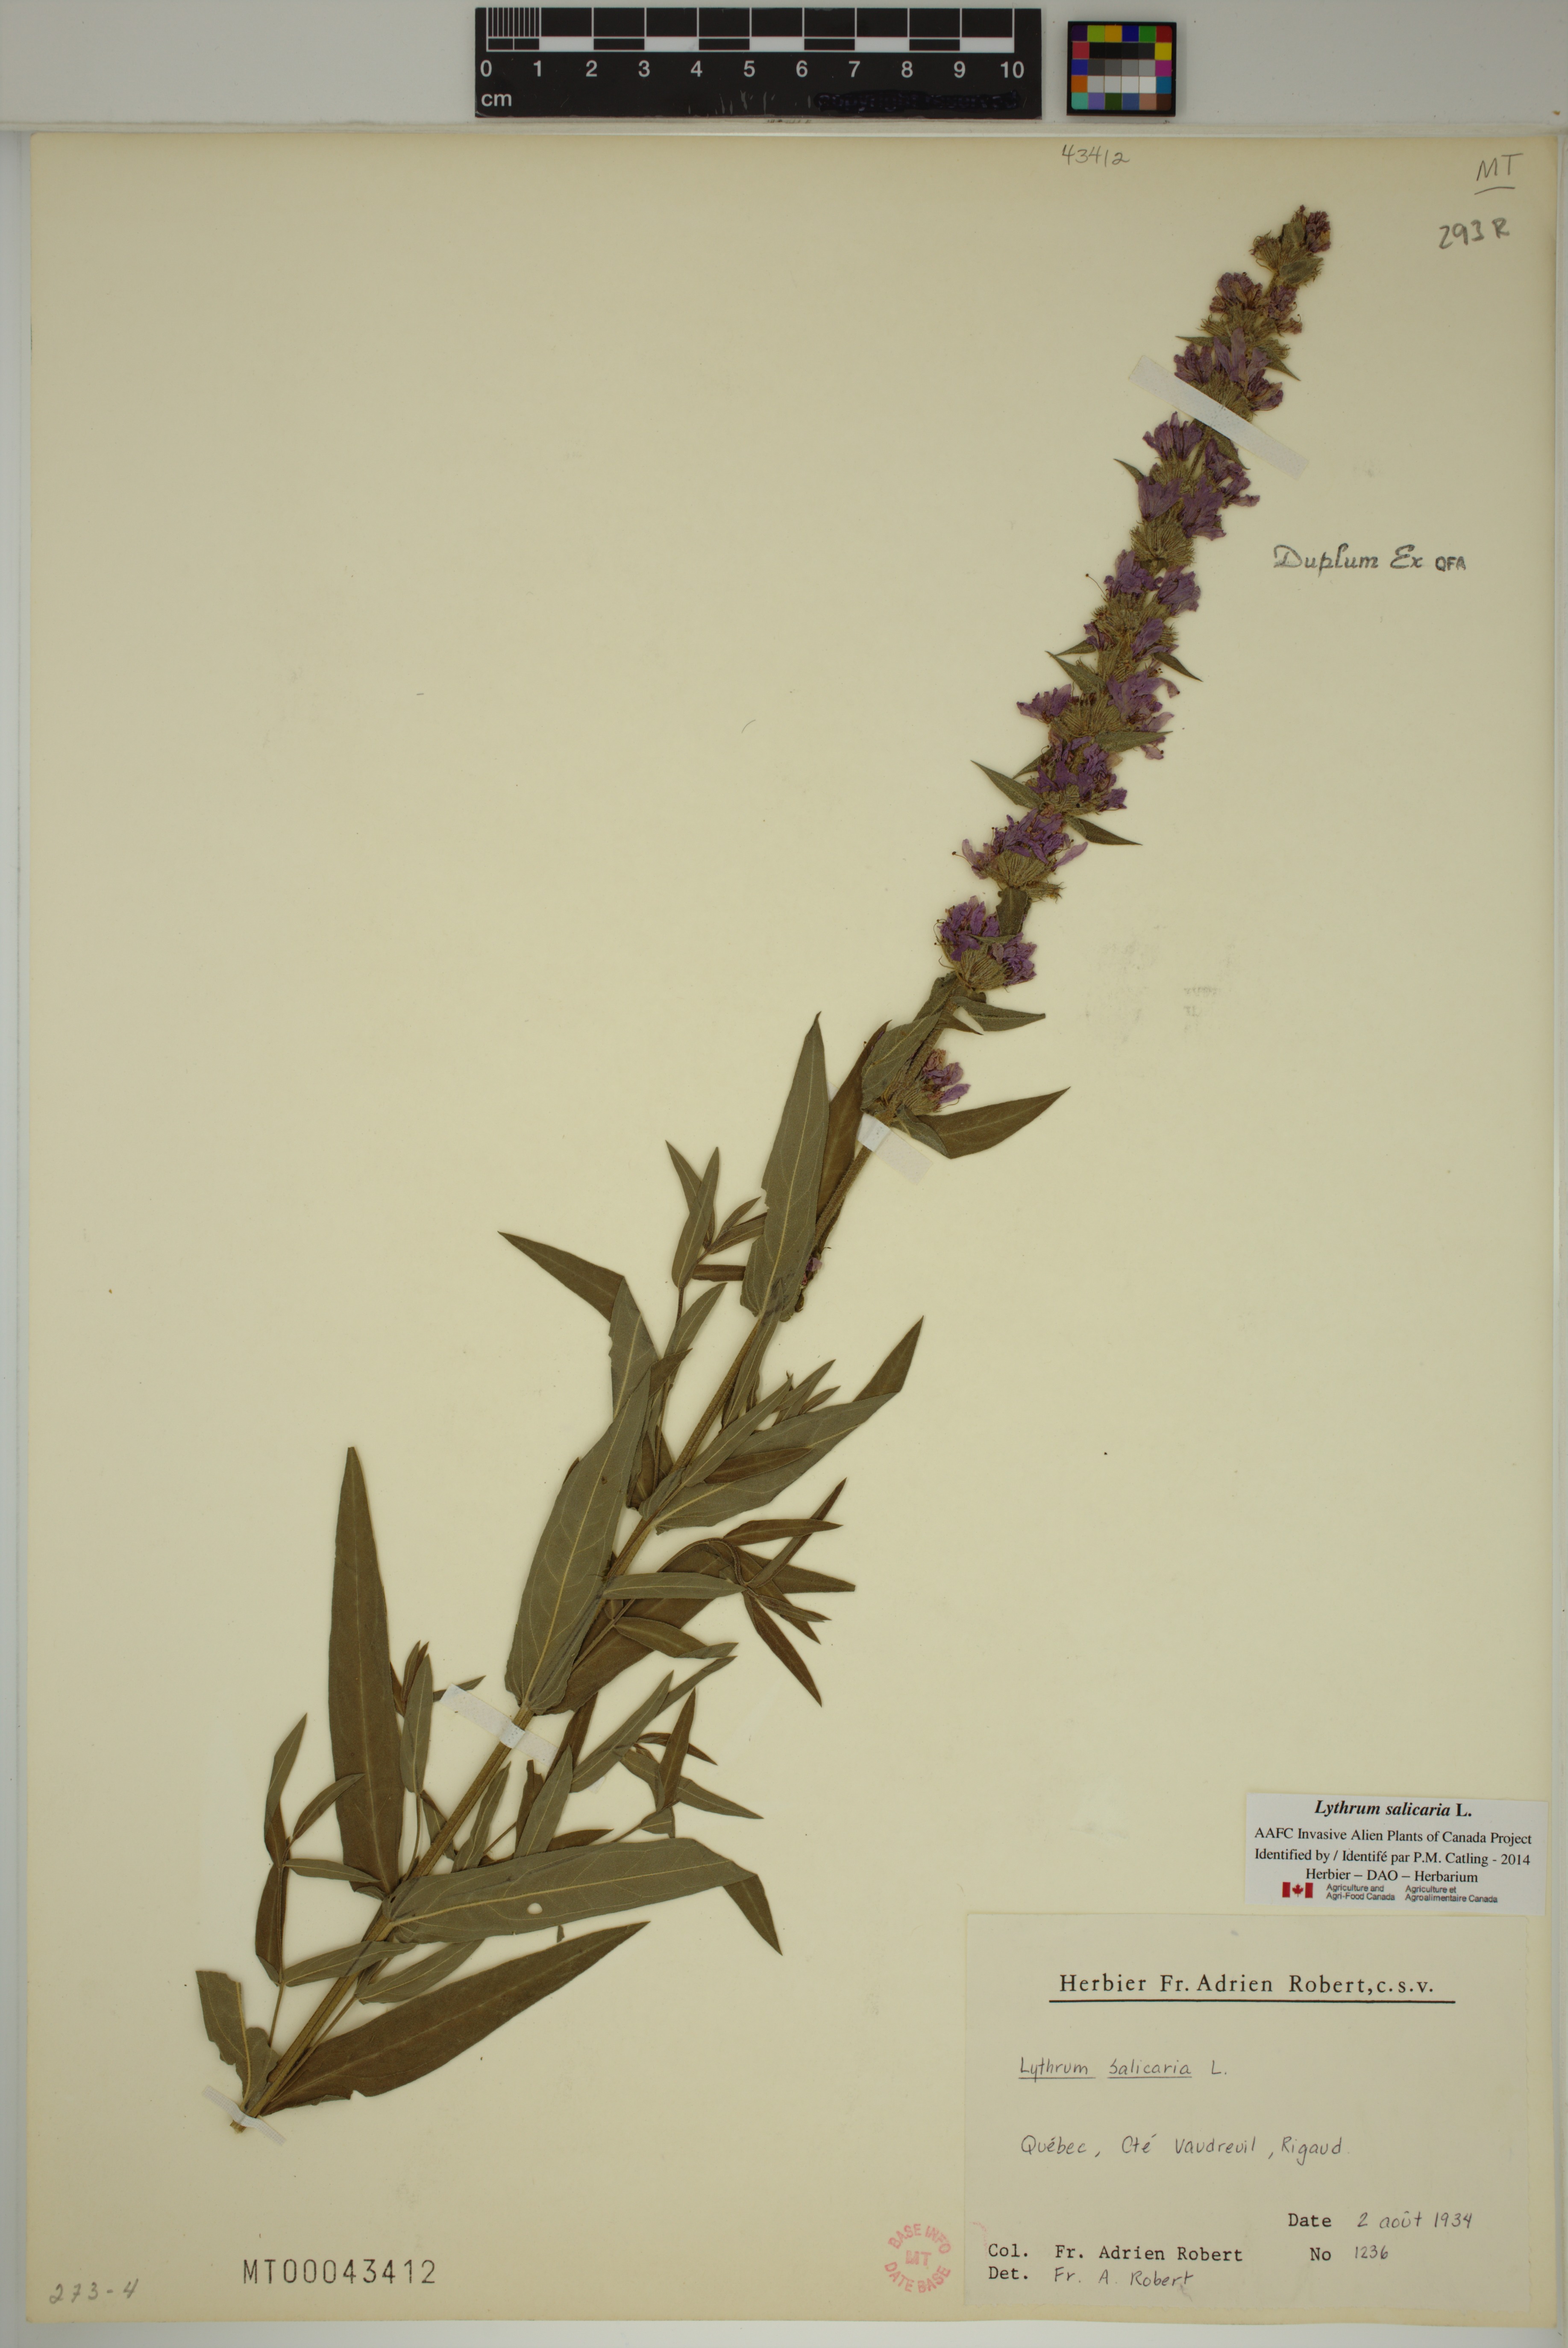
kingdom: Plantae
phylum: Tracheophyta
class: Magnoliopsida
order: Myrtales
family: Lythraceae
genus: Lythrum
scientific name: Lythrum salicaria
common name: Purple loosestrife
